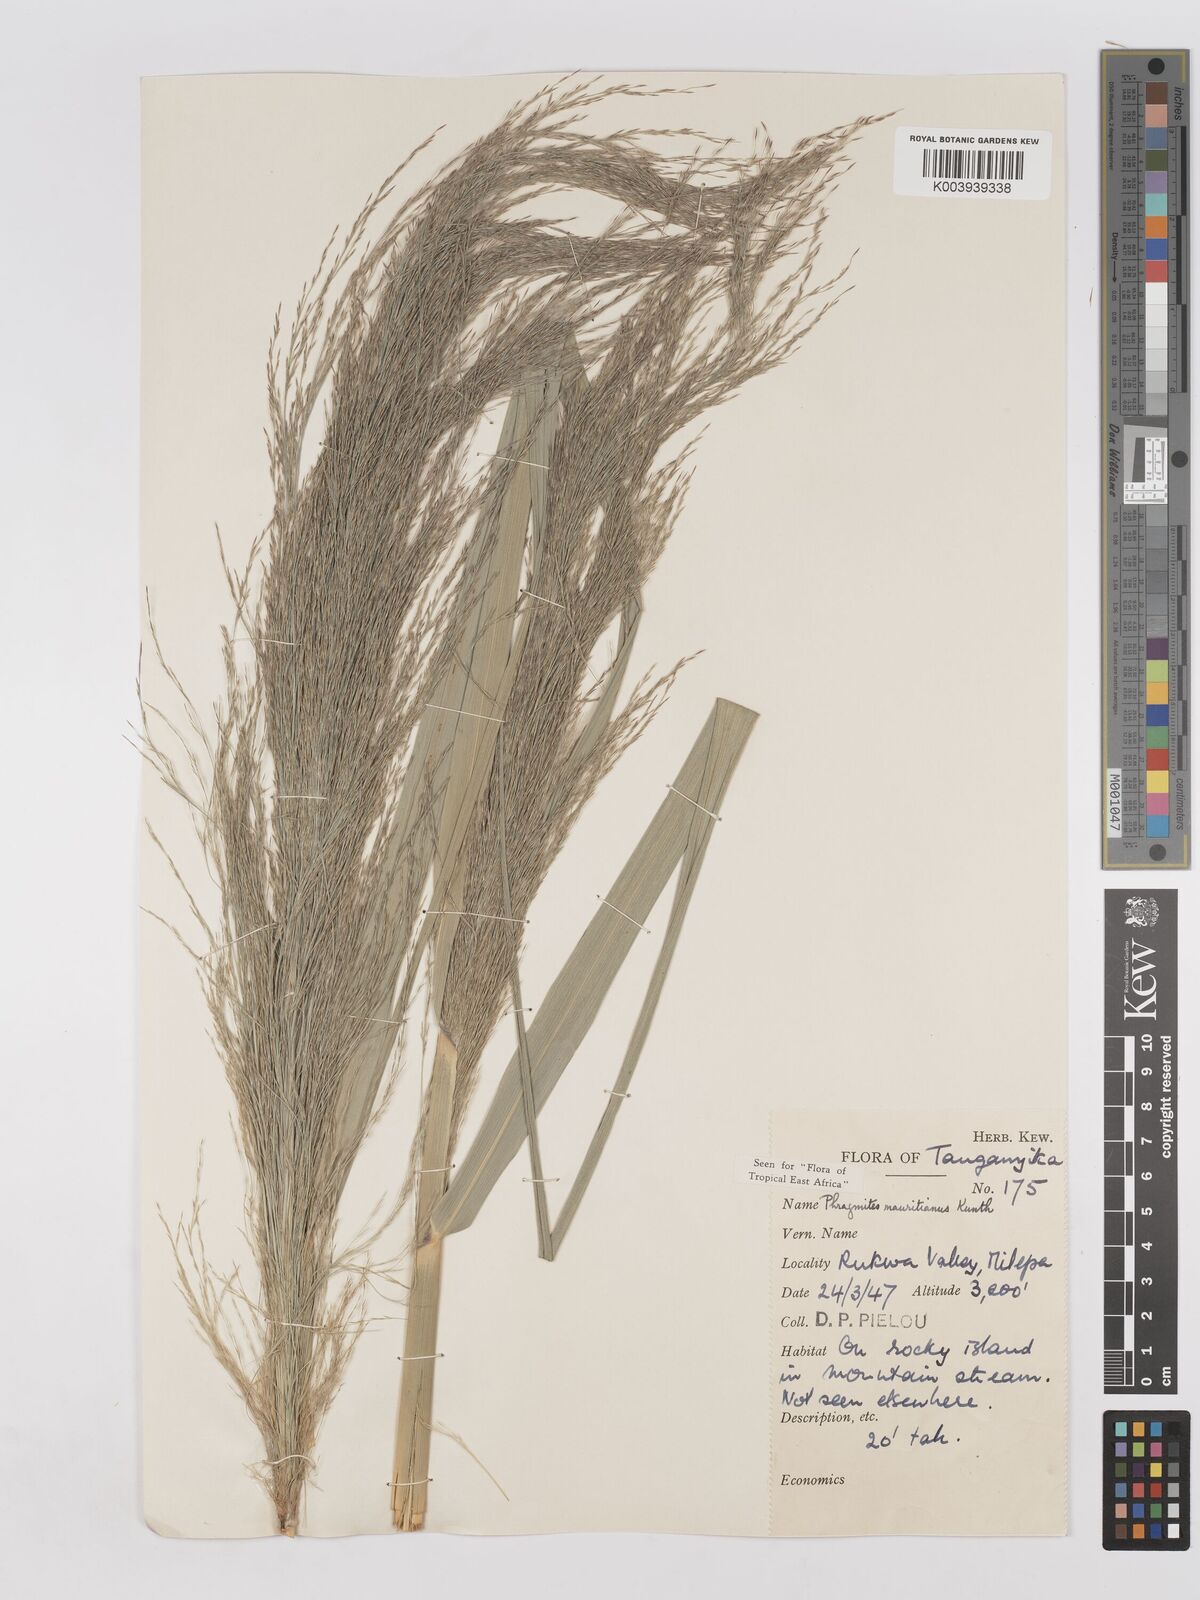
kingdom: Plantae
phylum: Tracheophyta
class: Liliopsida
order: Poales
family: Poaceae
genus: Phragmites
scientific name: Phragmites mauritianus
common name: Reed grass
